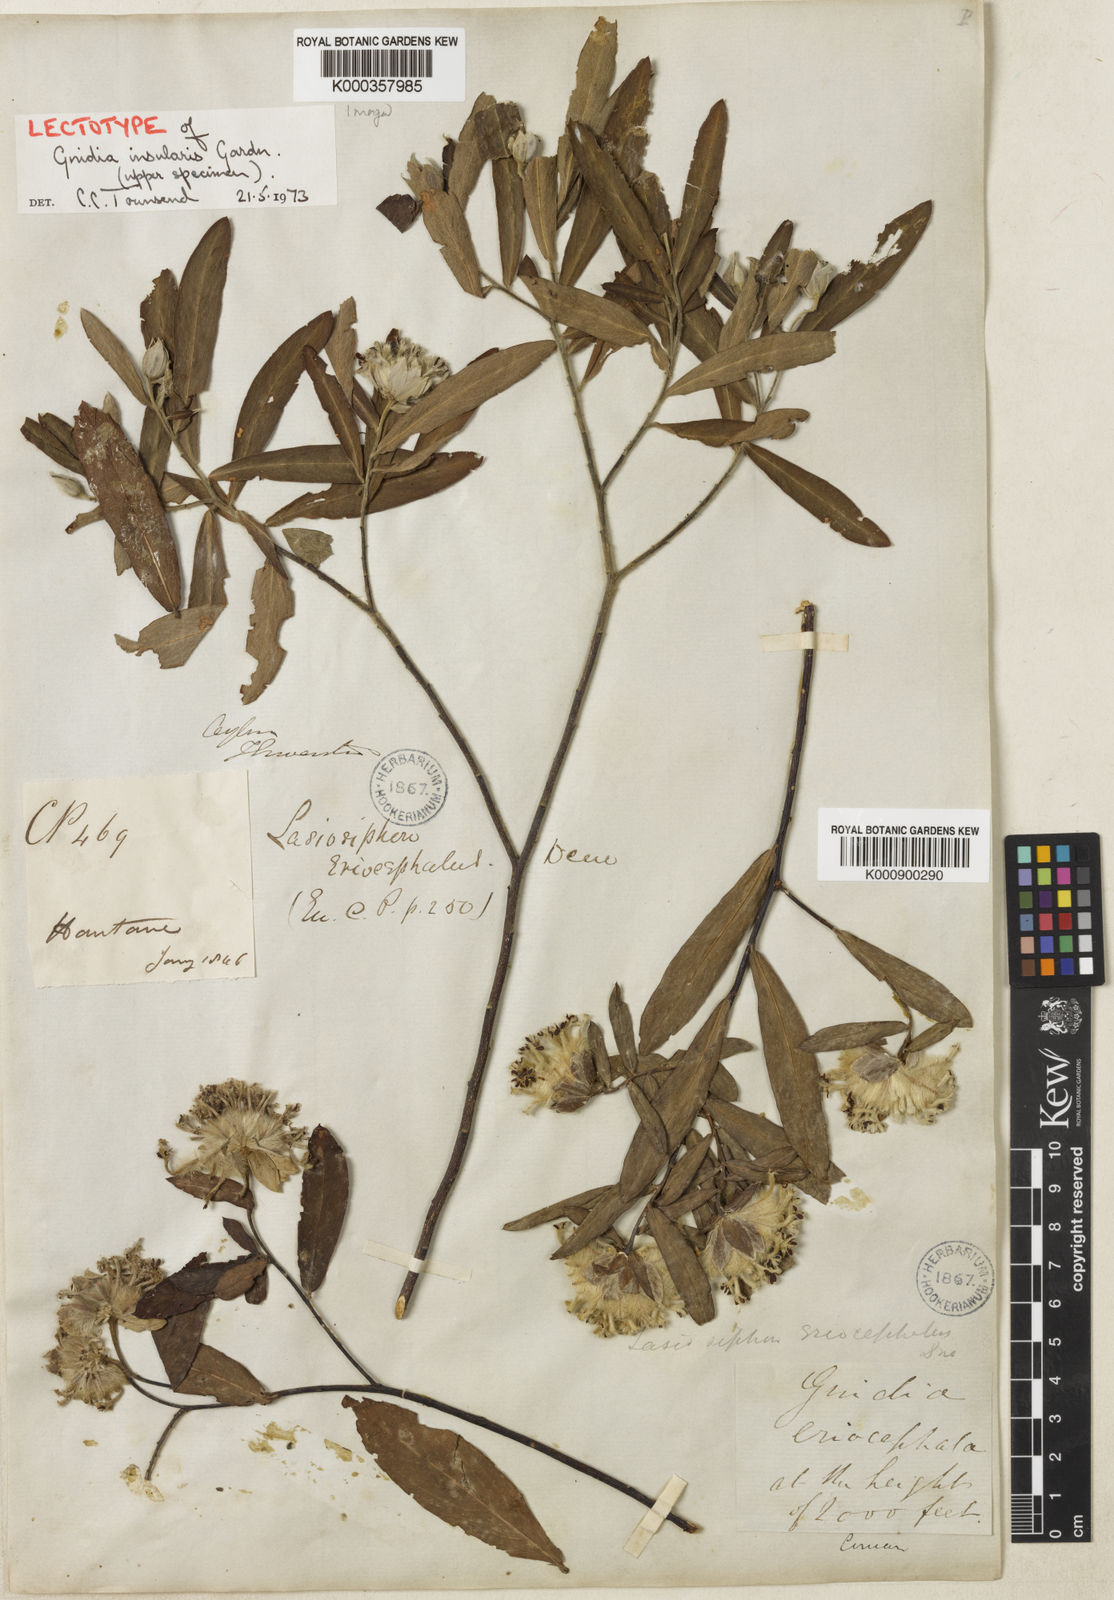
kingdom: Plantae
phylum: Tracheophyta
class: Magnoliopsida
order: Malvales
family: Thymelaeaceae
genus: Gnidia
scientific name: Gnidia glauca
